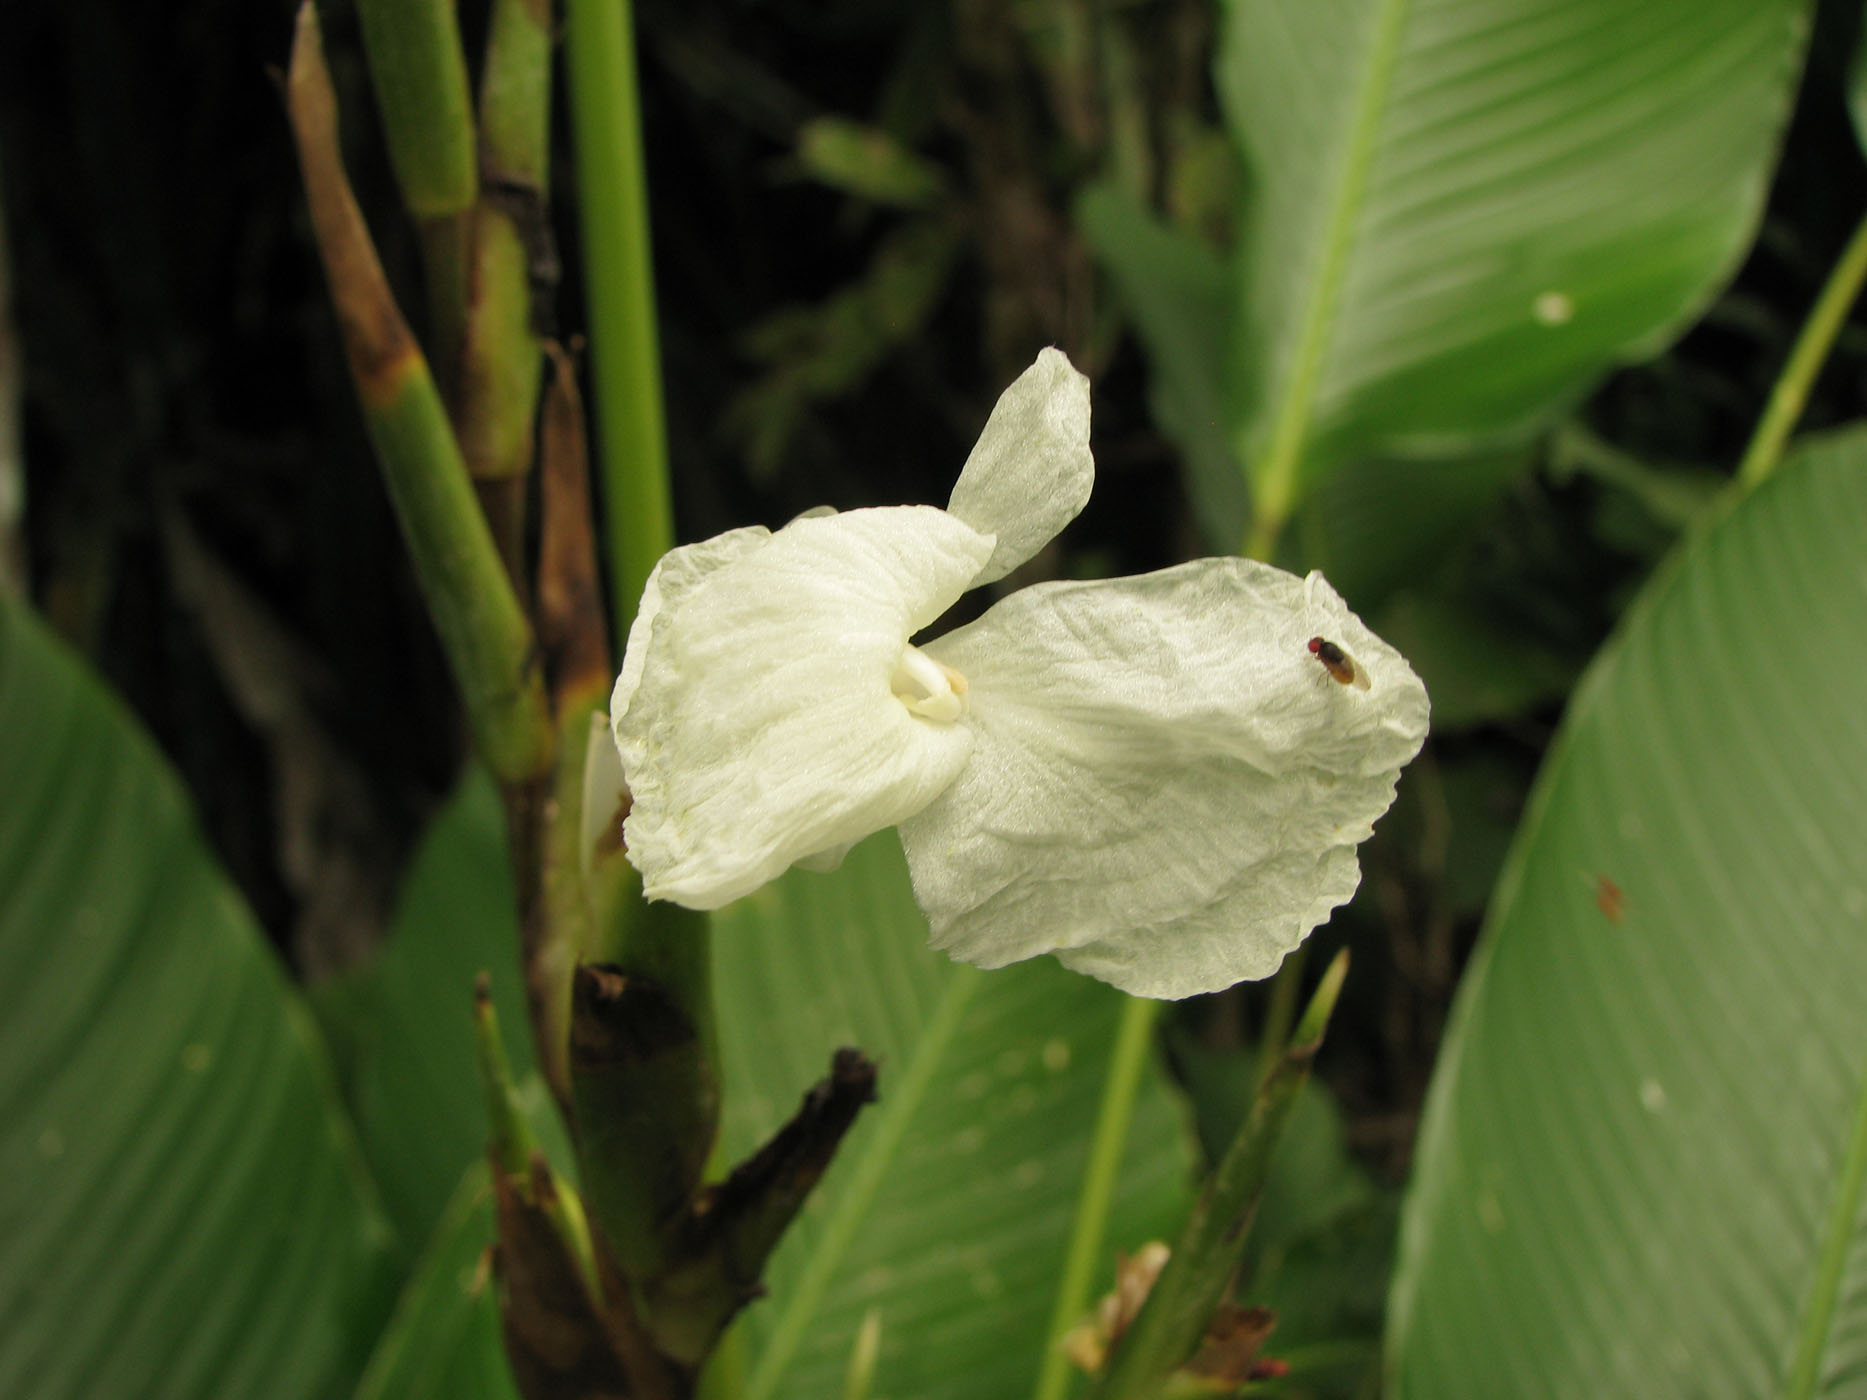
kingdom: Plantae
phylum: Tracheophyta
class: Liliopsida
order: Zingiberales
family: Marantaceae
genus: Phrynium
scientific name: Phrynium rubrum
